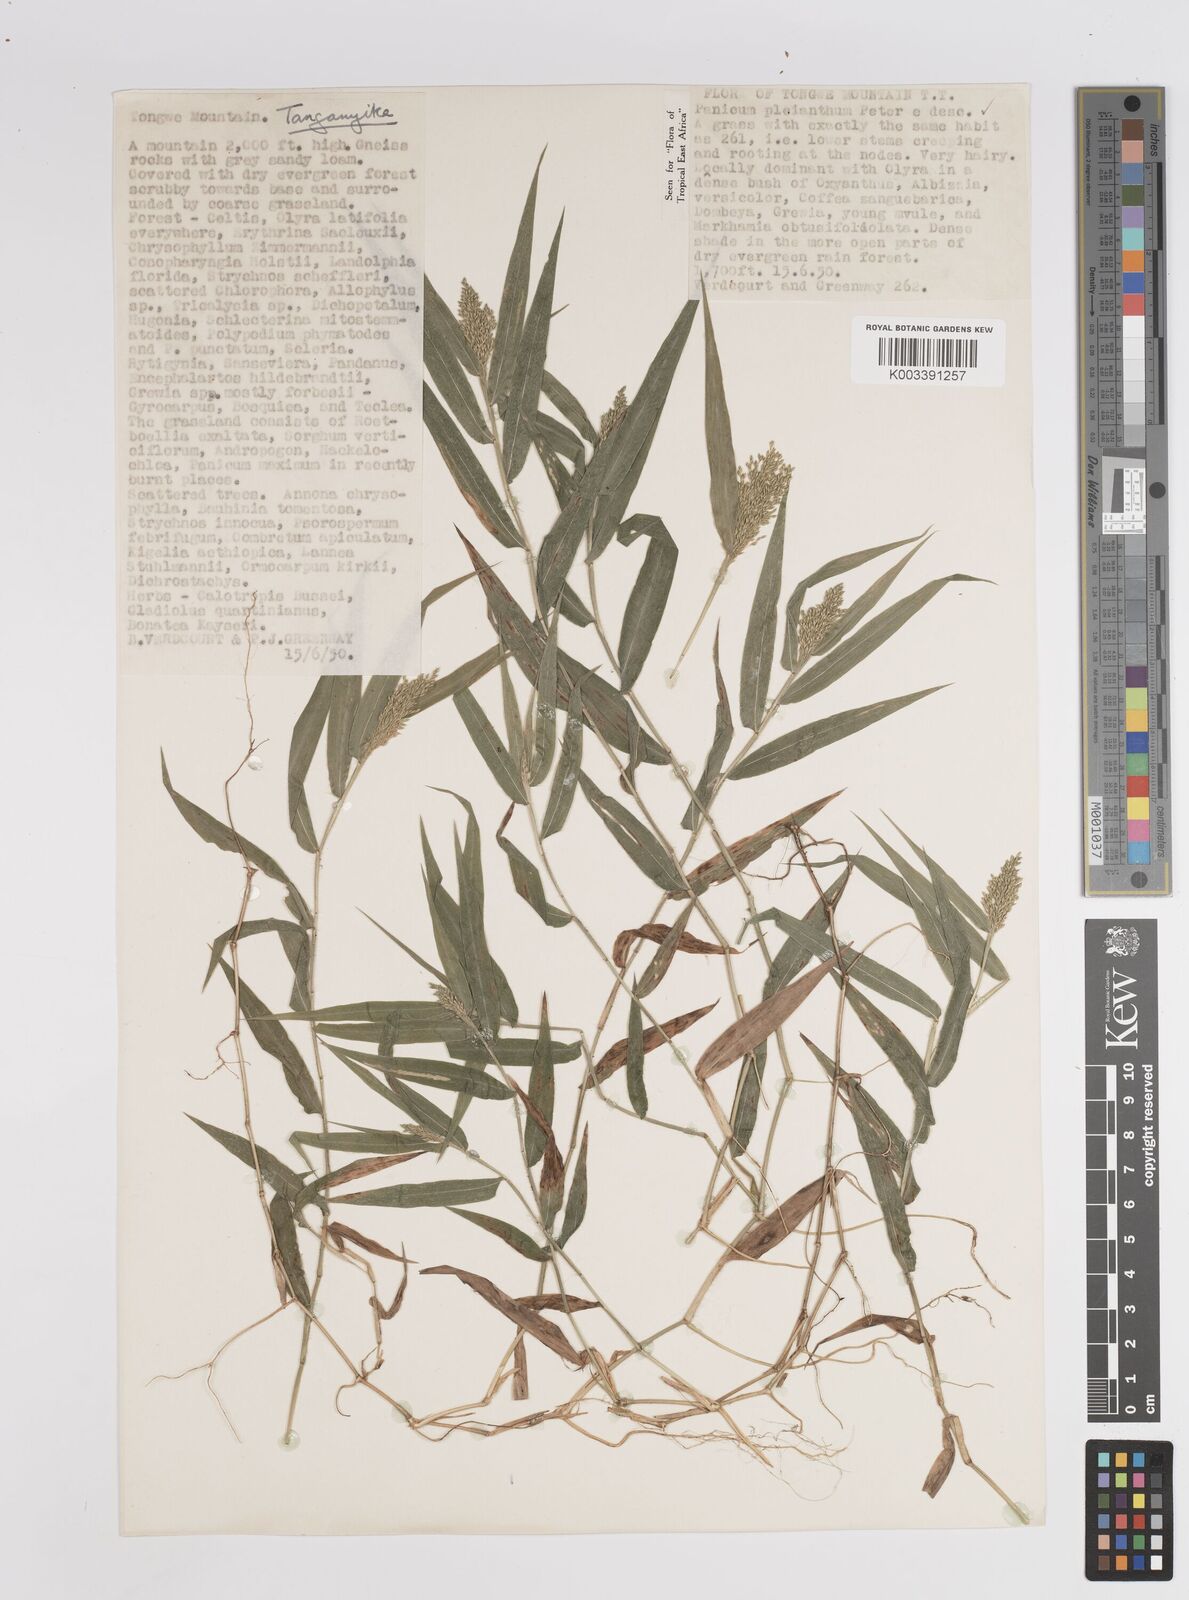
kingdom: Plantae
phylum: Tracheophyta
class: Liliopsida
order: Poales
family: Poaceae
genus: Panicum
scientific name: Panicum pleianthum
